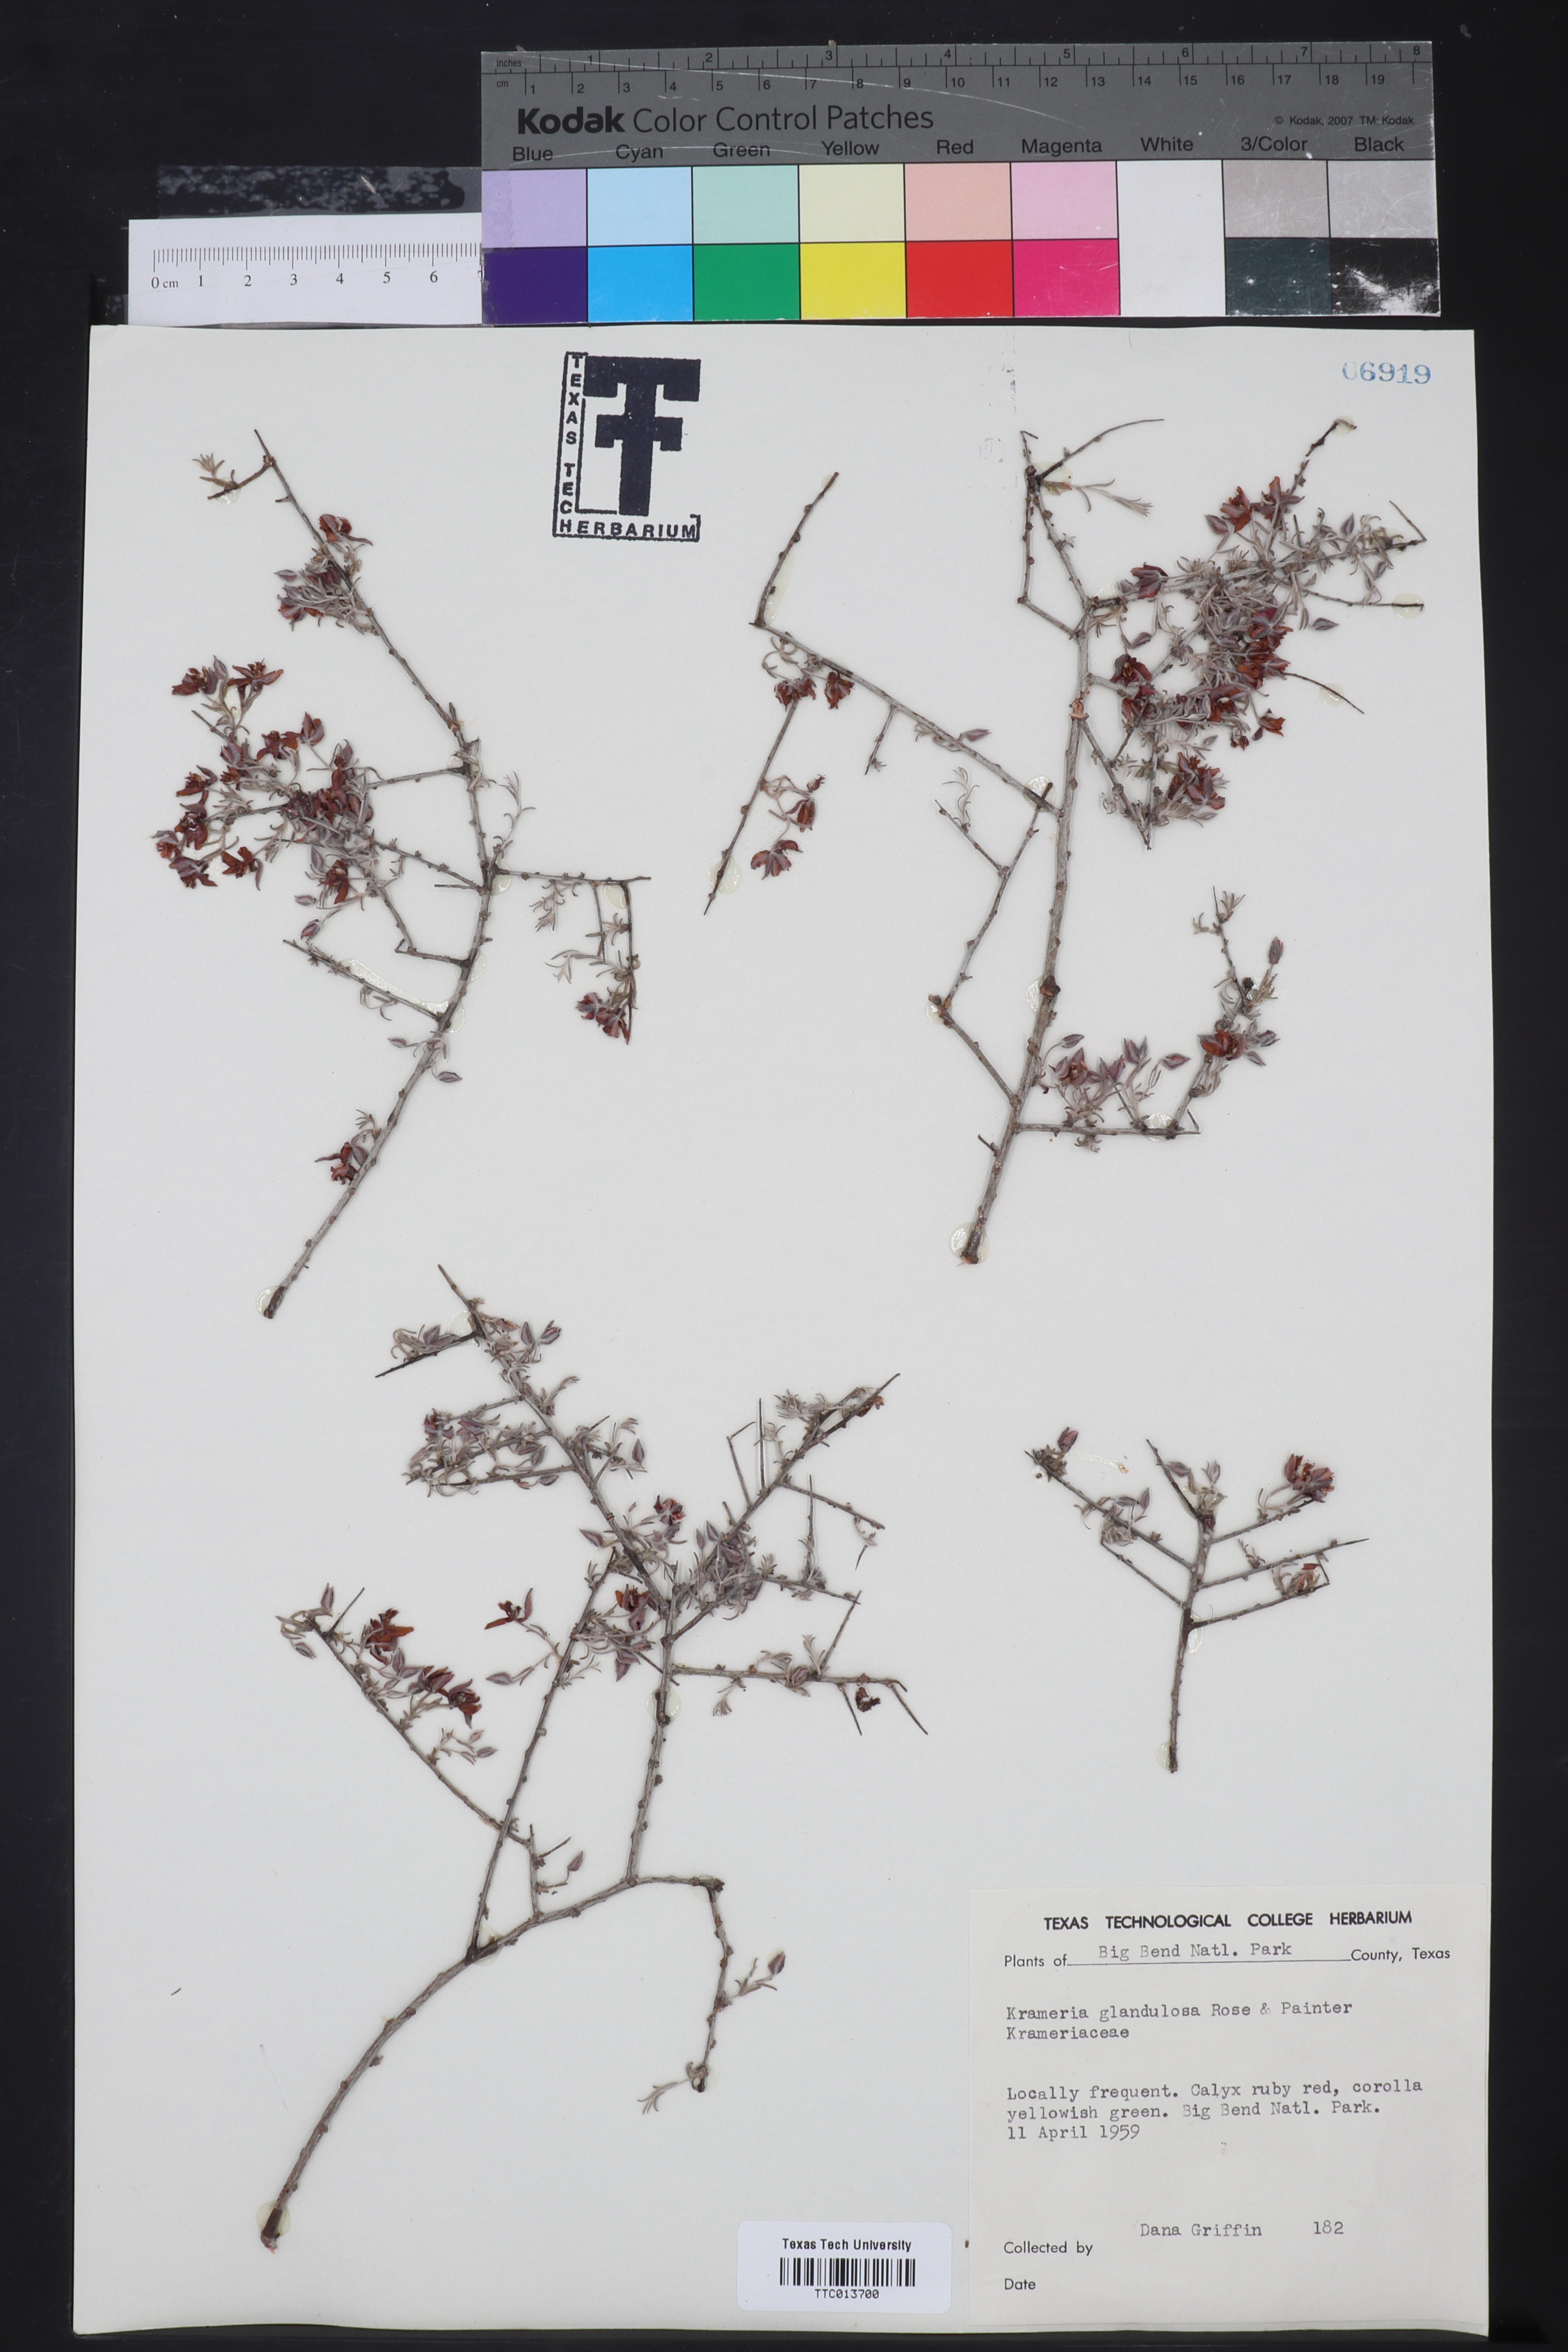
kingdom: Plantae
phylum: Tracheophyta
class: Magnoliopsida
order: Zygophyllales
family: Krameriaceae
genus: Krameria
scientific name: Krameria erecta
